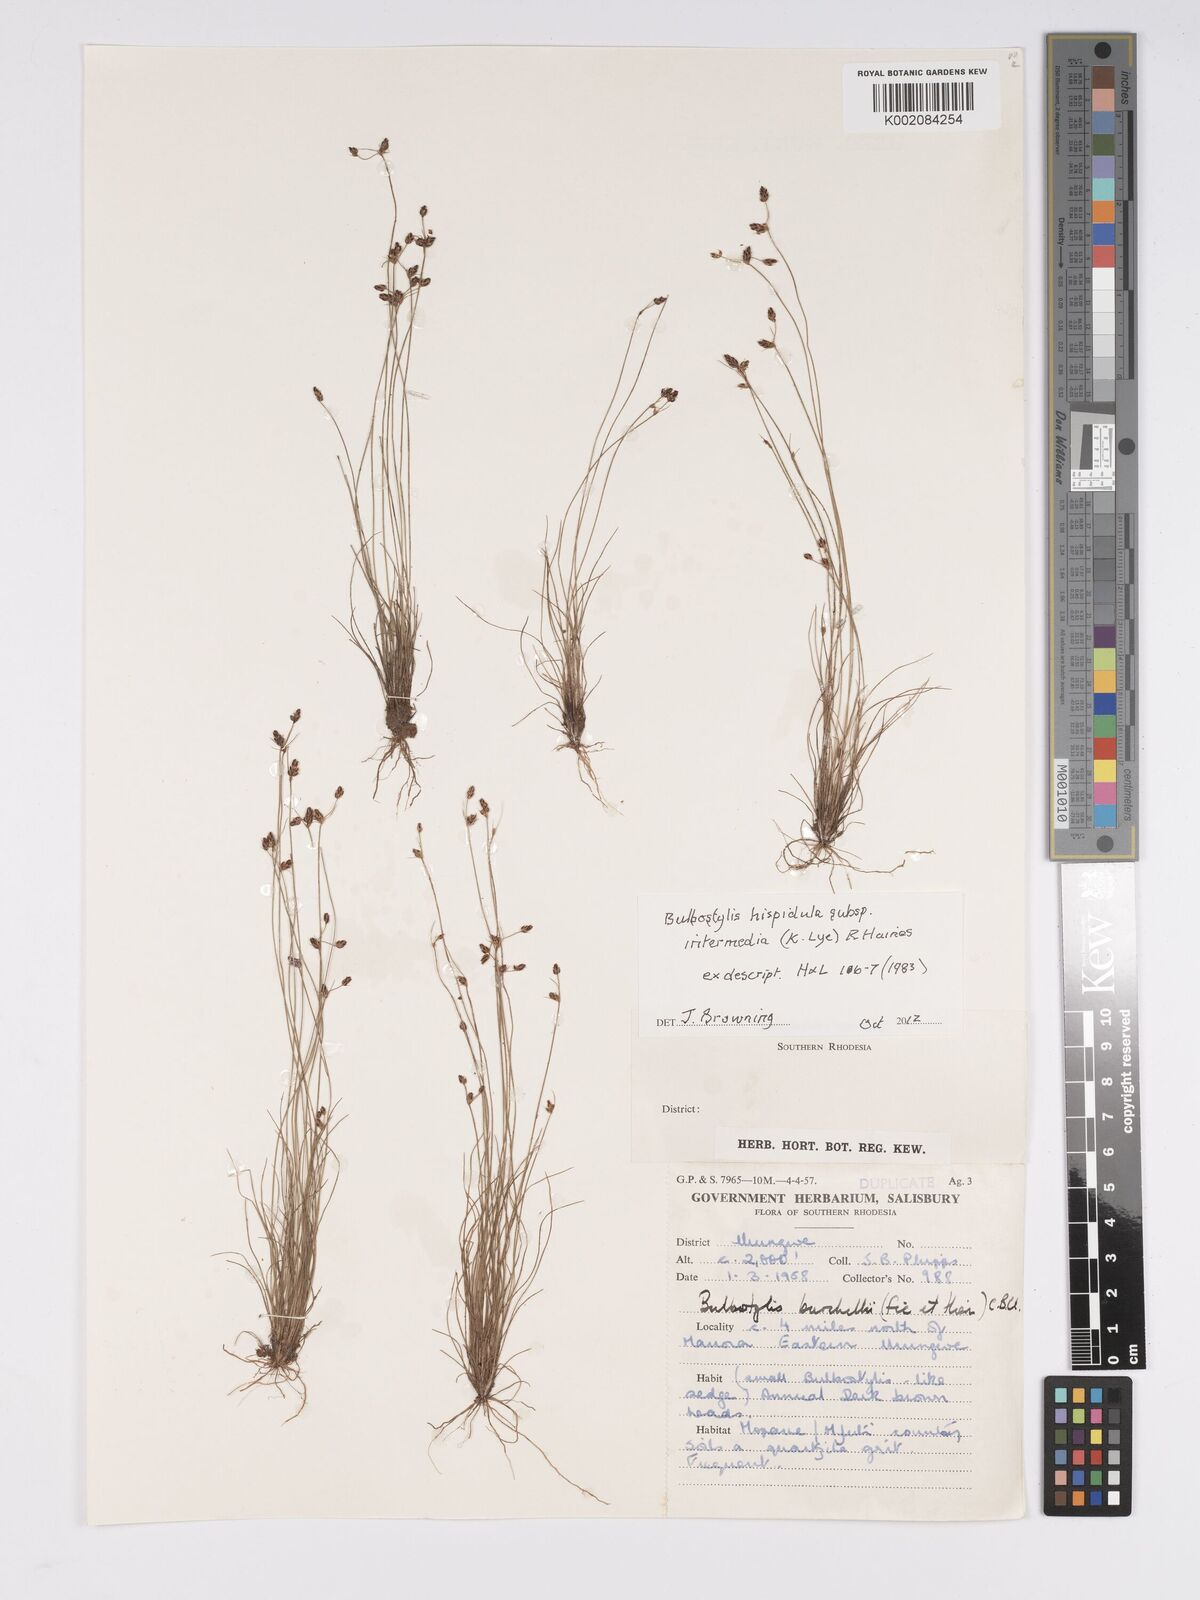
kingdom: Plantae
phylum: Tracheophyta
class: Liliopsida
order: Poales
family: Cyperaceae
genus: Bulbostylis
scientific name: Bulbostylis
